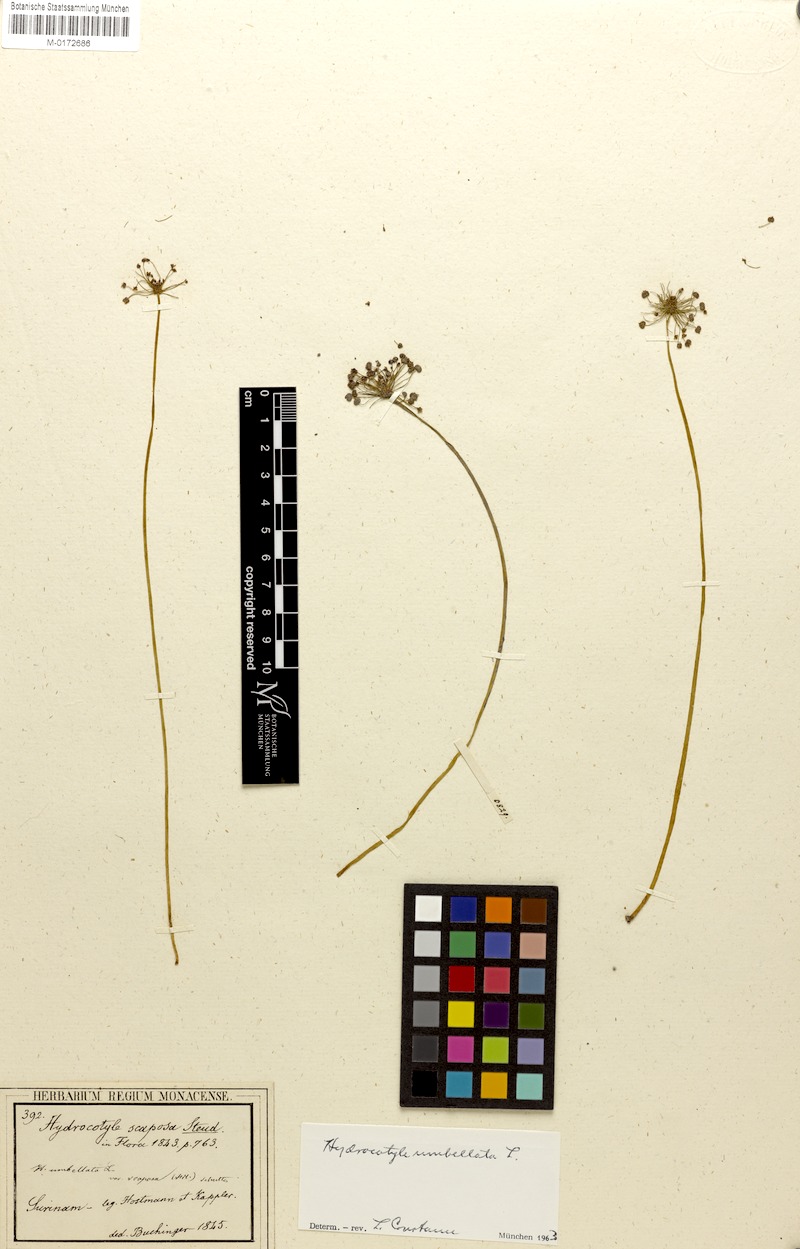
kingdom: Plantae
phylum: Tracheophyta
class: Magnoliopsida
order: Apiales
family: Araliaceae
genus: Hydrocotyle
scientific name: Hydrocotyle umbellata
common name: Water pennywort
